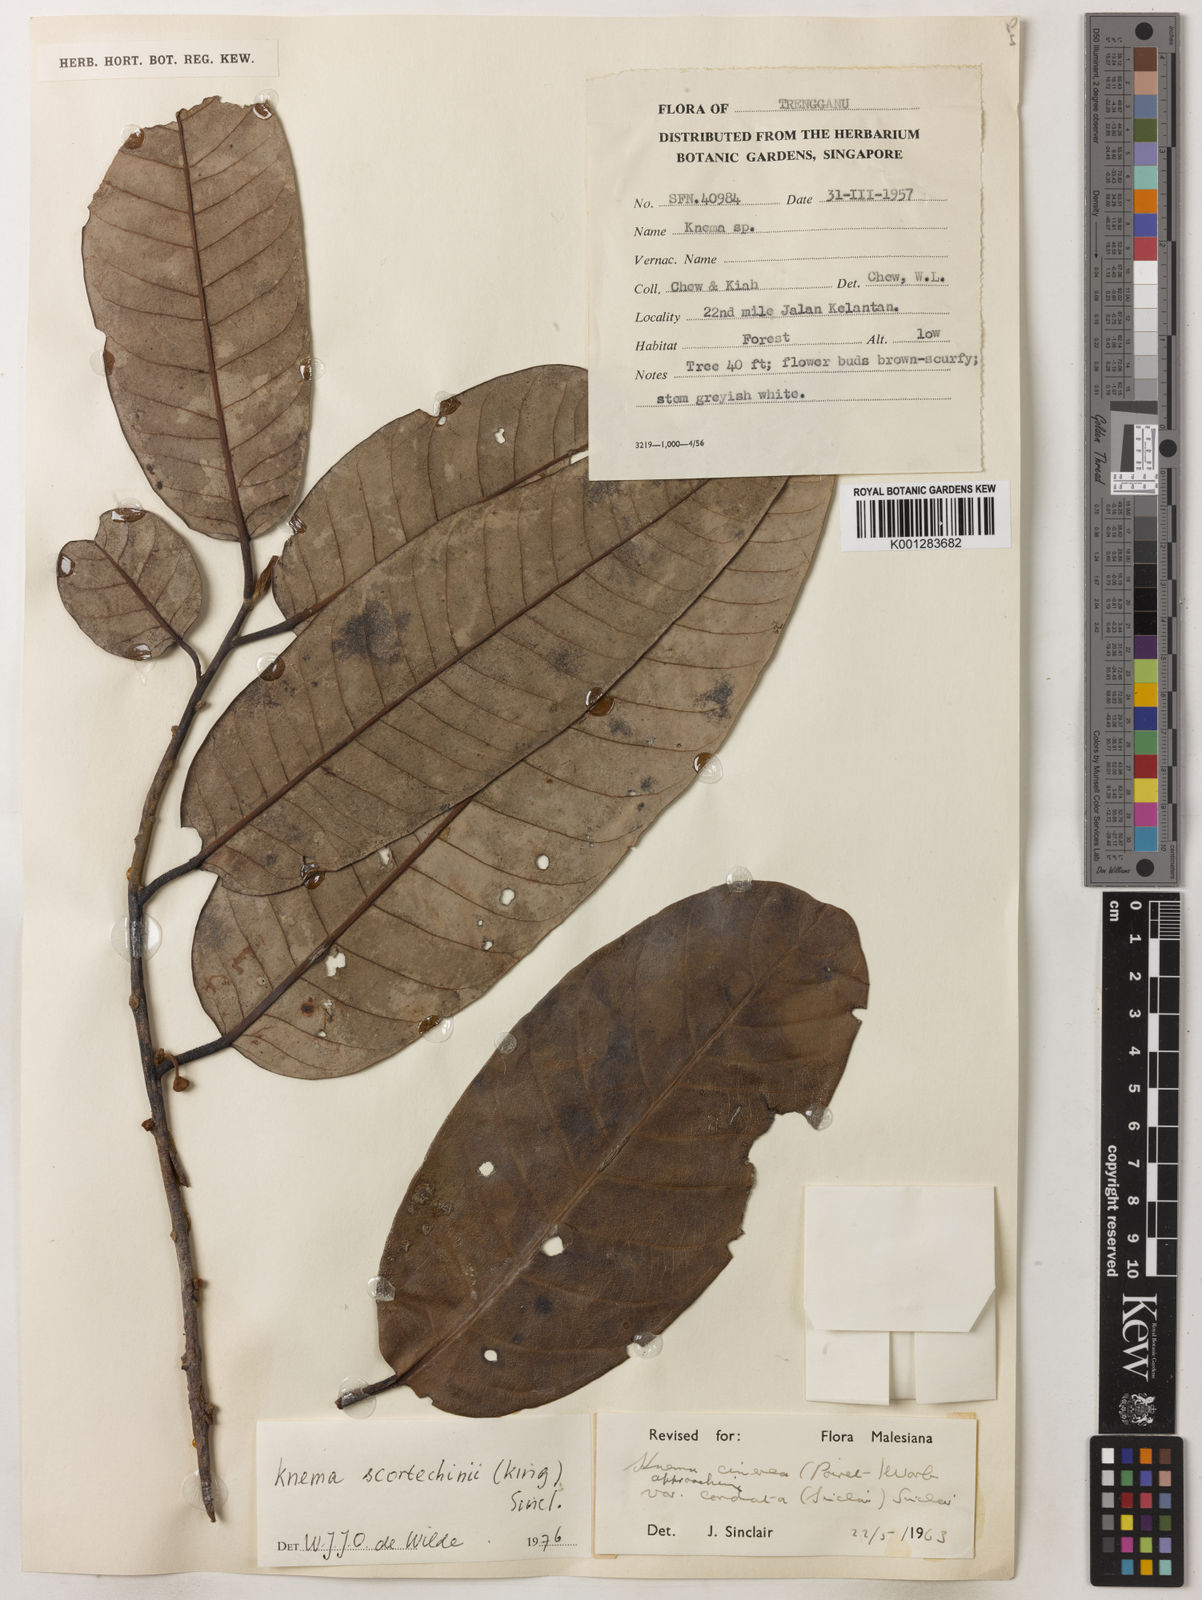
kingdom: Plantae
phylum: Tracheophyta
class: Magnoliopsida
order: Magnoliales
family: Myristicaceae
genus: Knema
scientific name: Knema scortechinii
